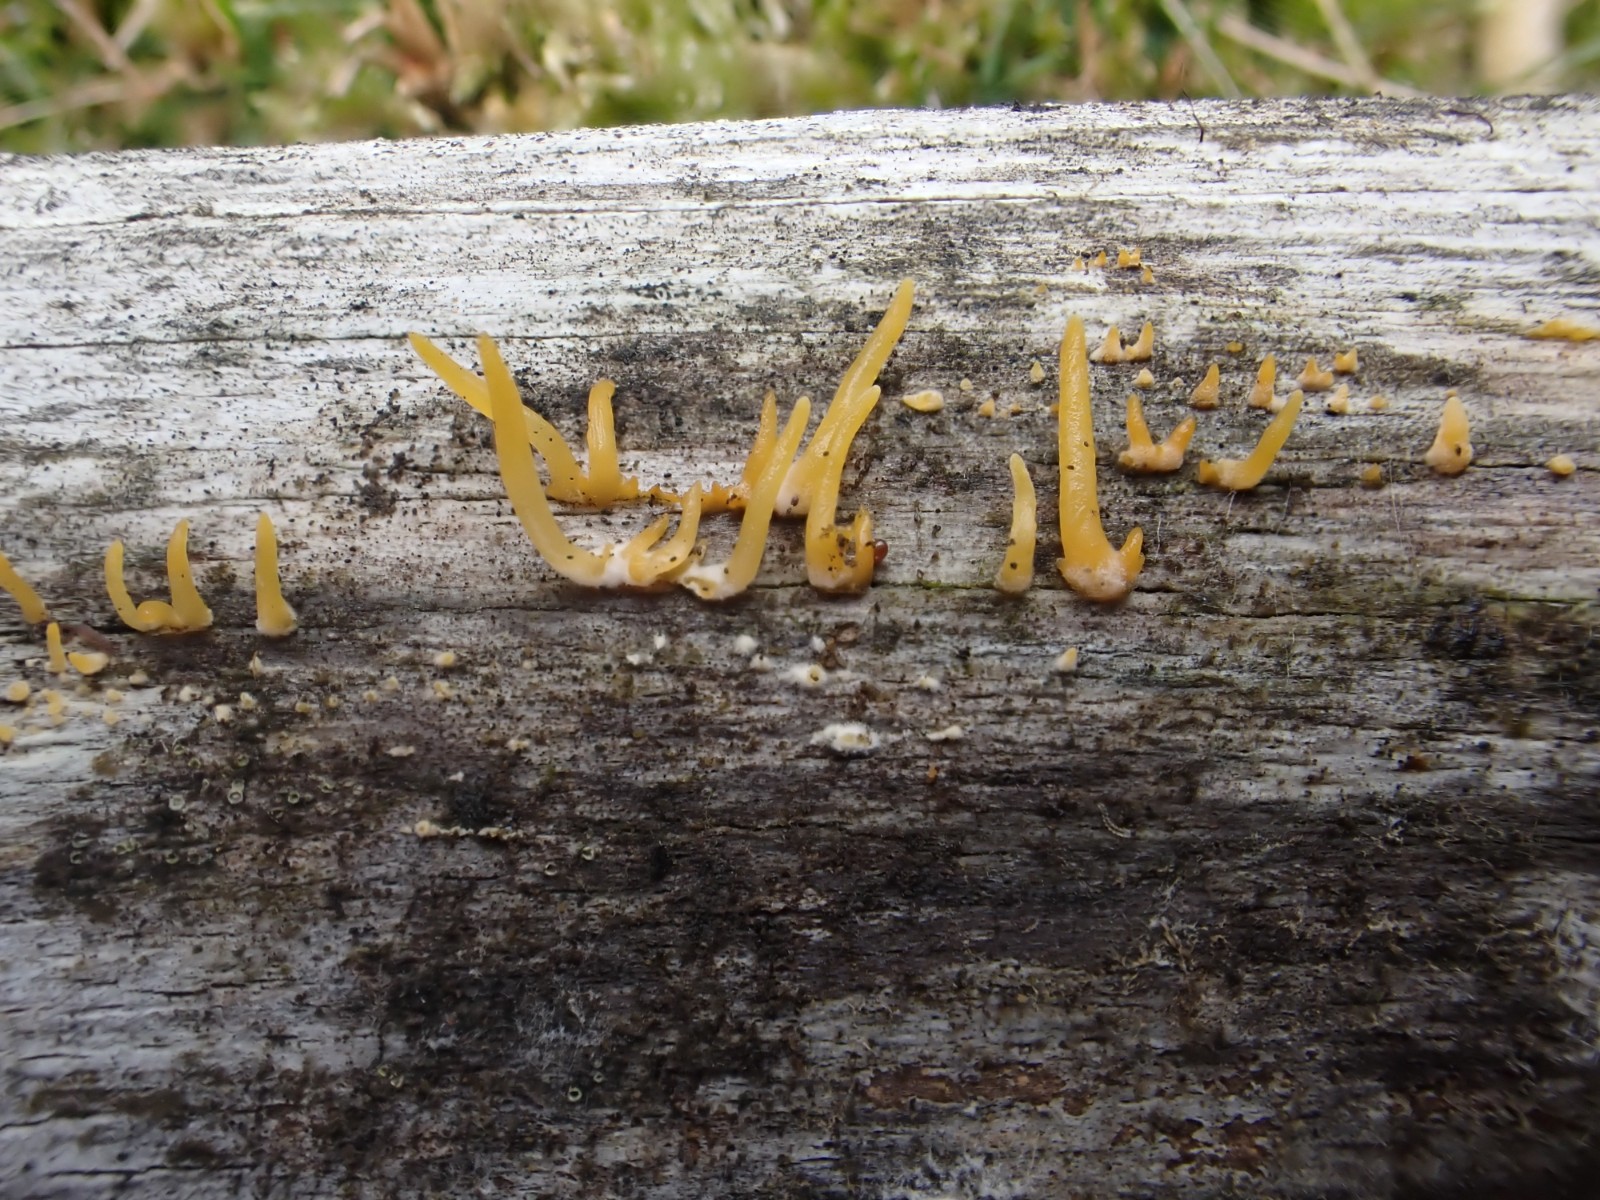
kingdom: Fungi
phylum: Basidiomycota
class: Dacrymycetes
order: Dacrymycetales
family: Dacrymycetaceae
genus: Calocera
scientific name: Calocera cornea
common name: liden guldgaffel
